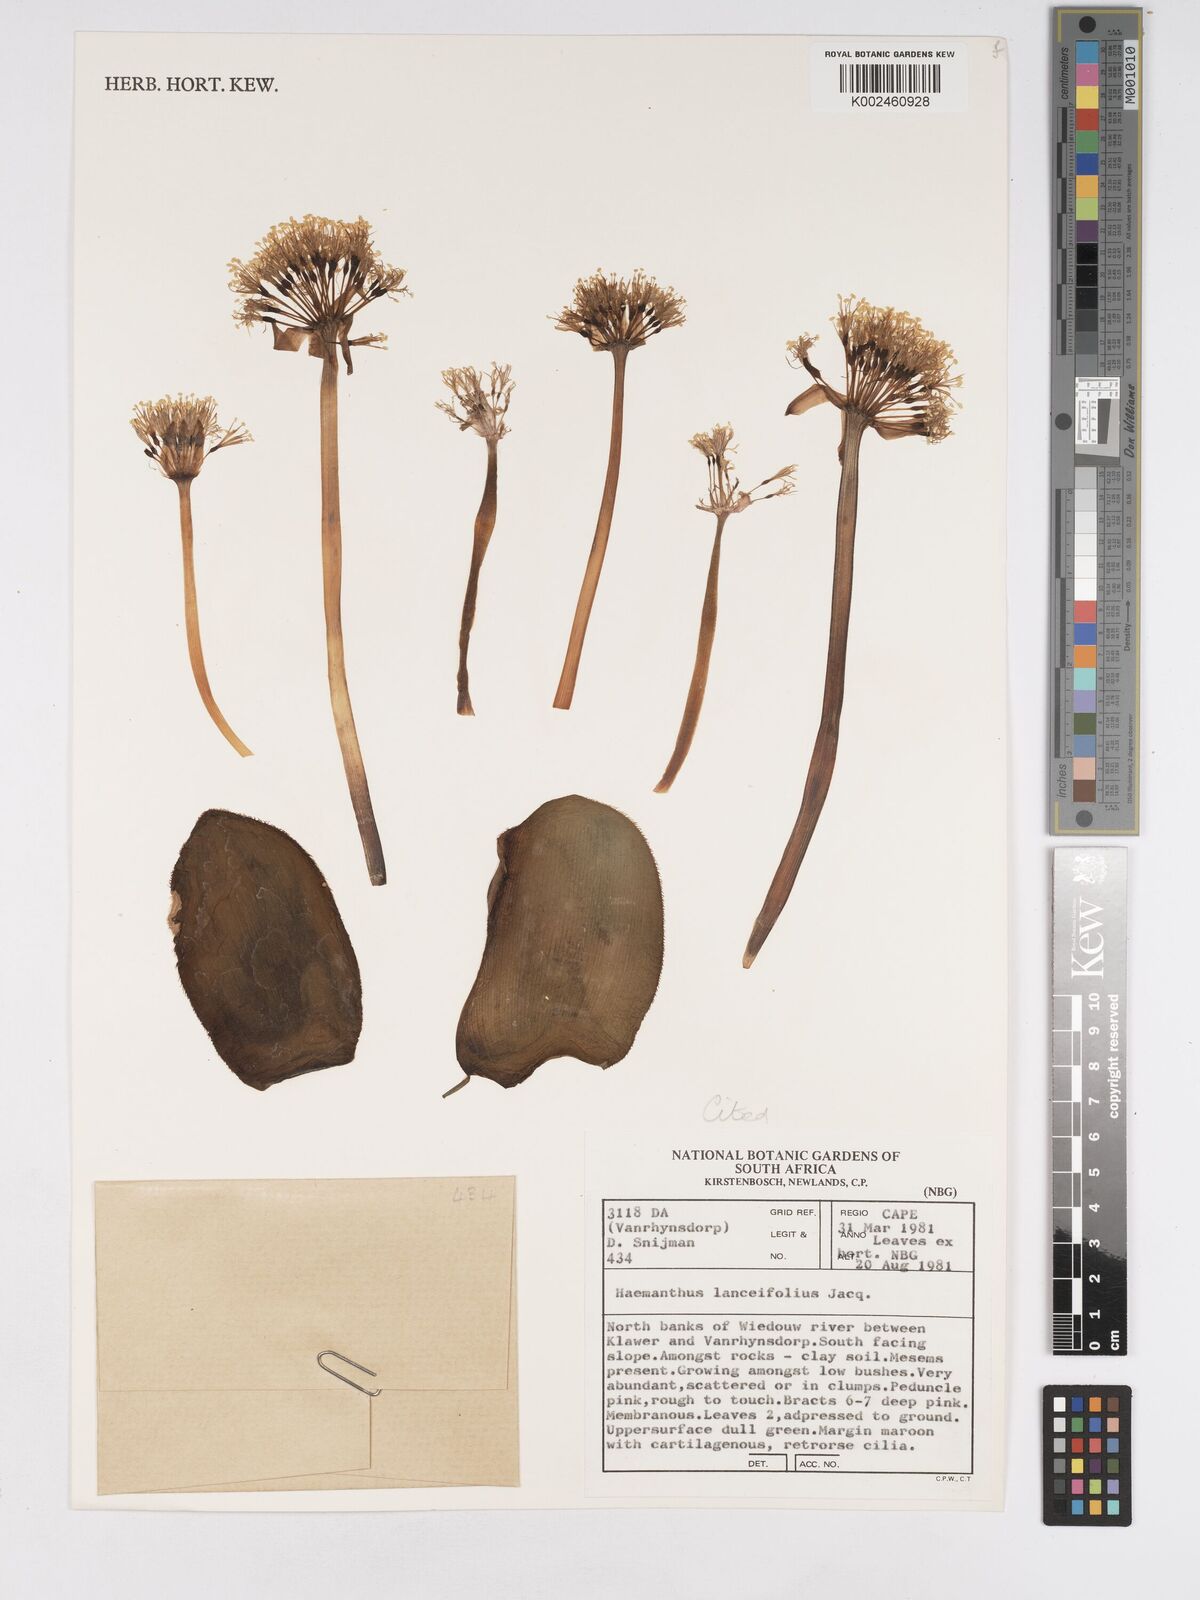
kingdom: Plantae
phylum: Tracheophyta
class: Liliopsida
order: Asparagales
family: Amaryllidaceae
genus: Haemanthus
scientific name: Haemanthus lanceifolius
